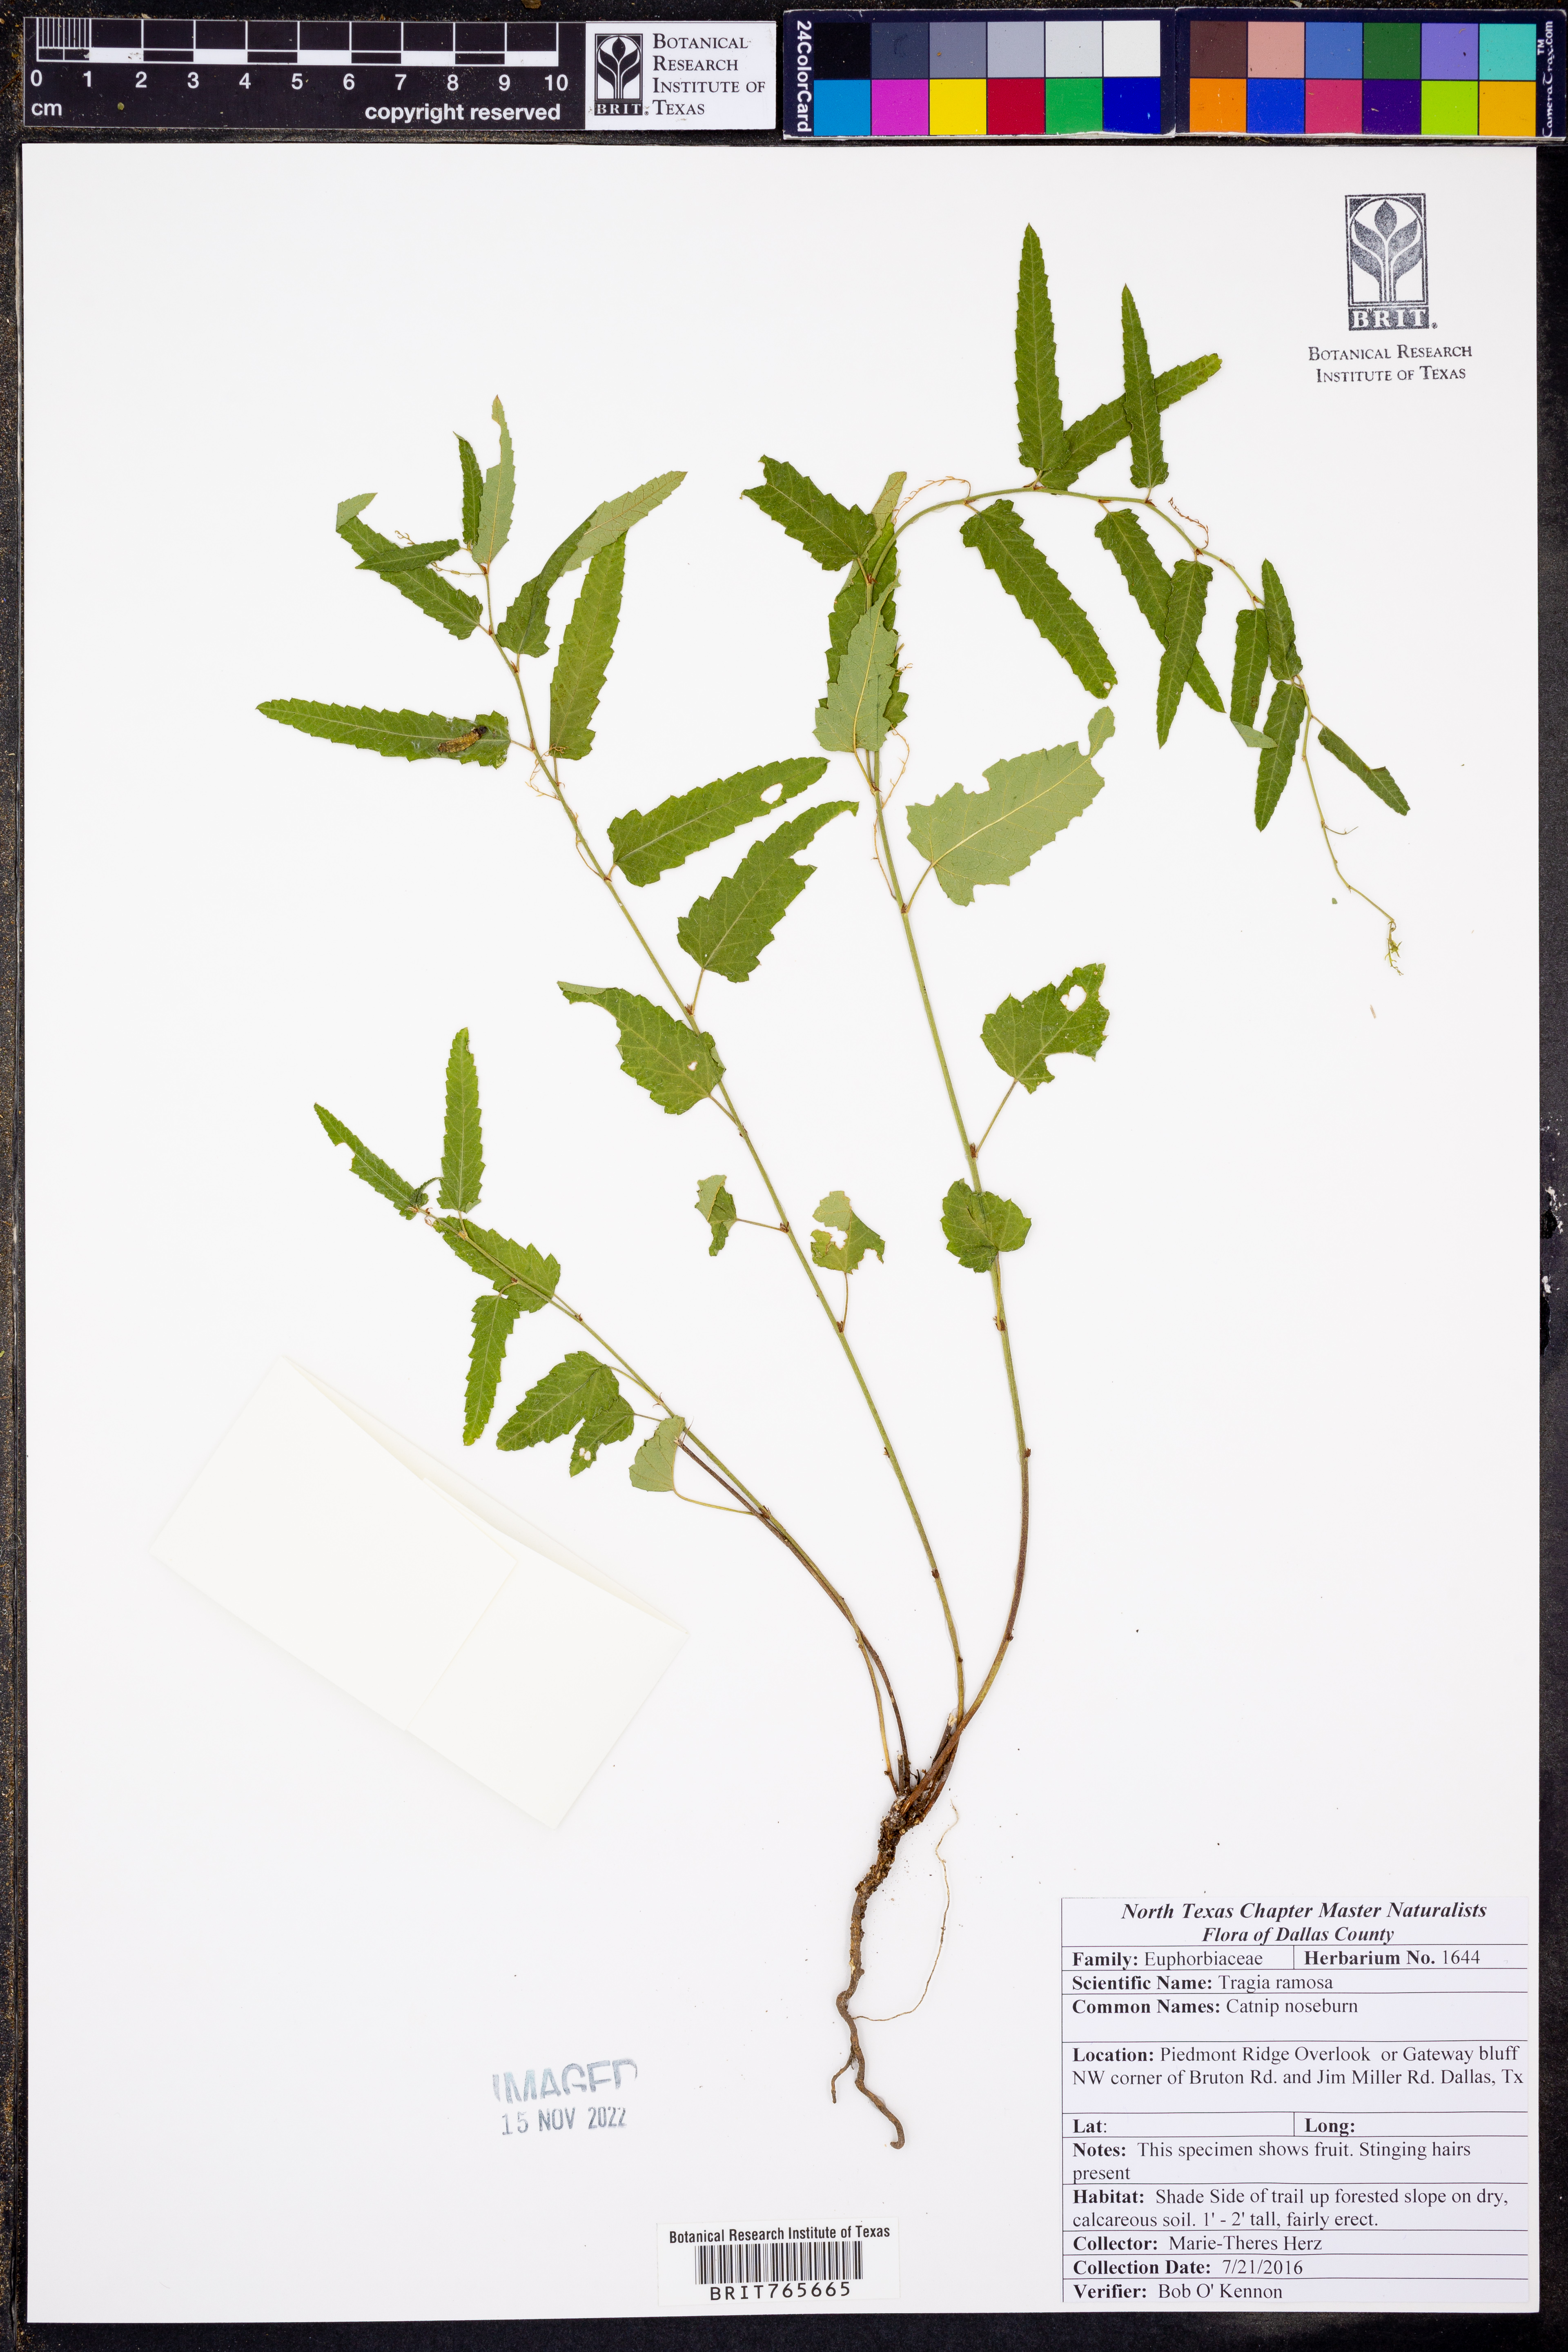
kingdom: Plantae
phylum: Tracheophyta
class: Magnoliopsida
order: Malpighiales
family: Euphorbiaceae
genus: Tragia
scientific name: Tragia ramosa
